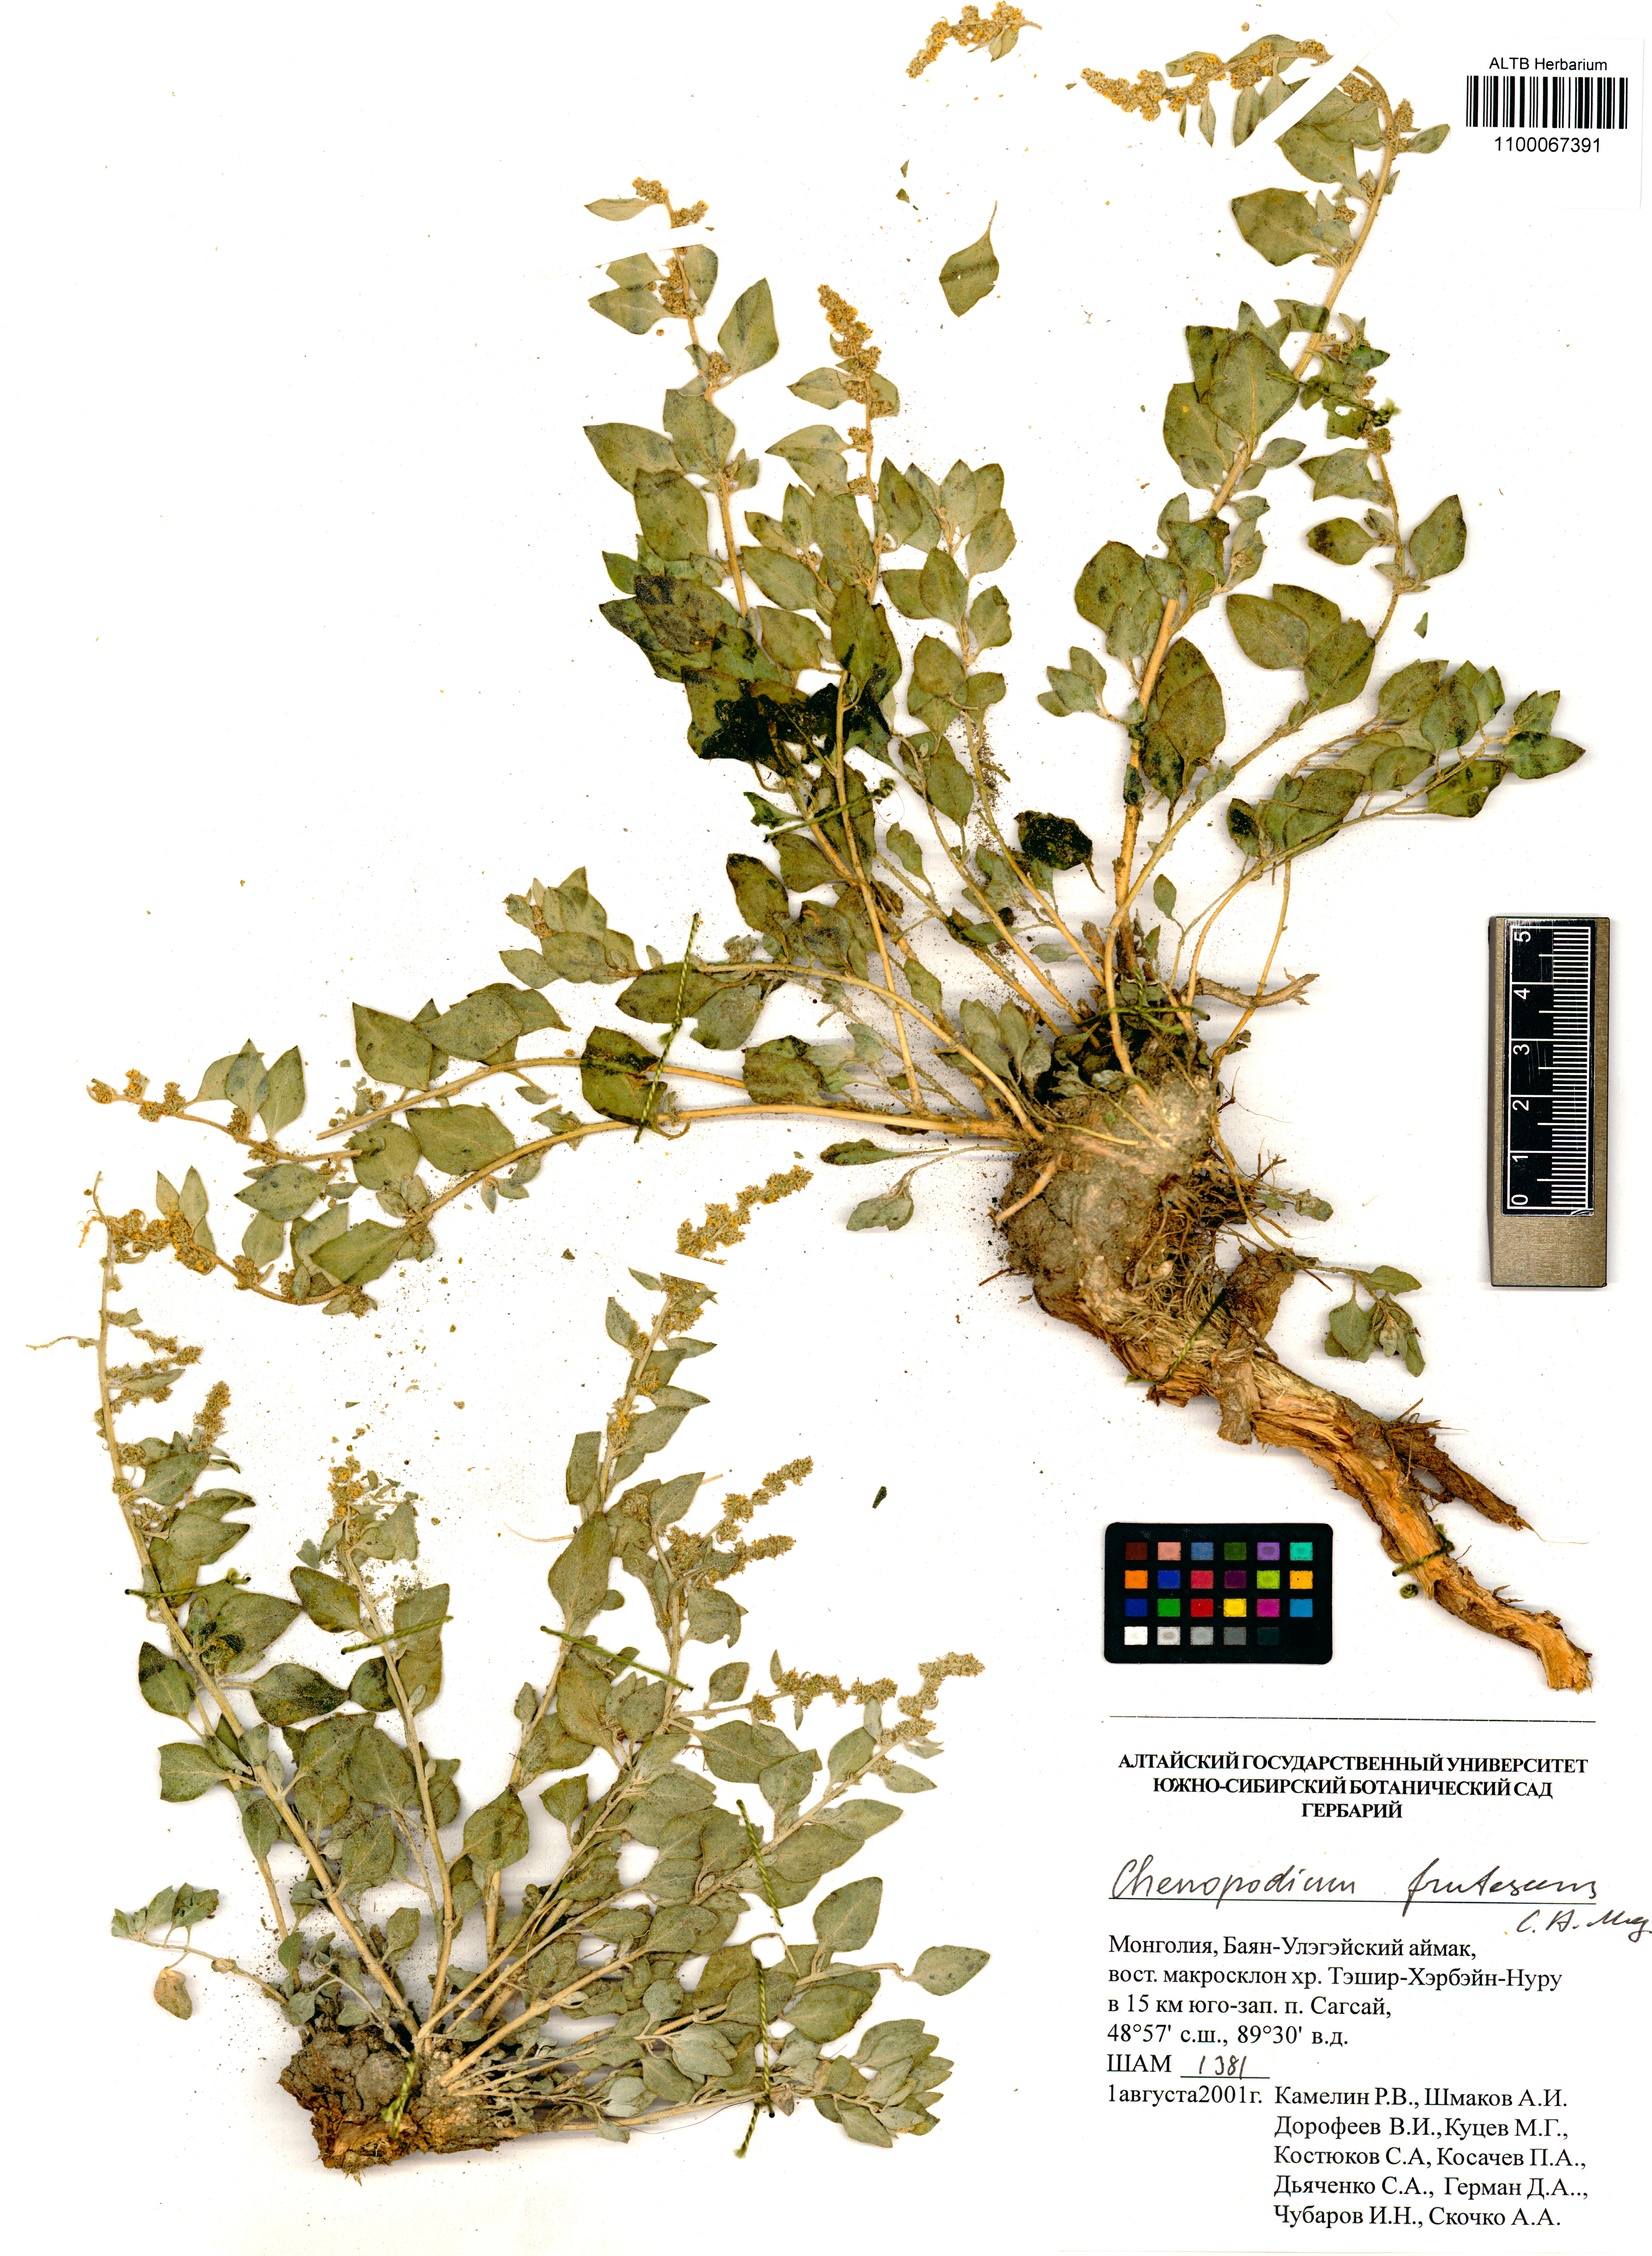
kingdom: Plantae
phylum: Tracheophyta
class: Magnoliopsida
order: Caryophyllales
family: Amaranthaceae
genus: Chenopodium
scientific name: Chenopodium frutescens
